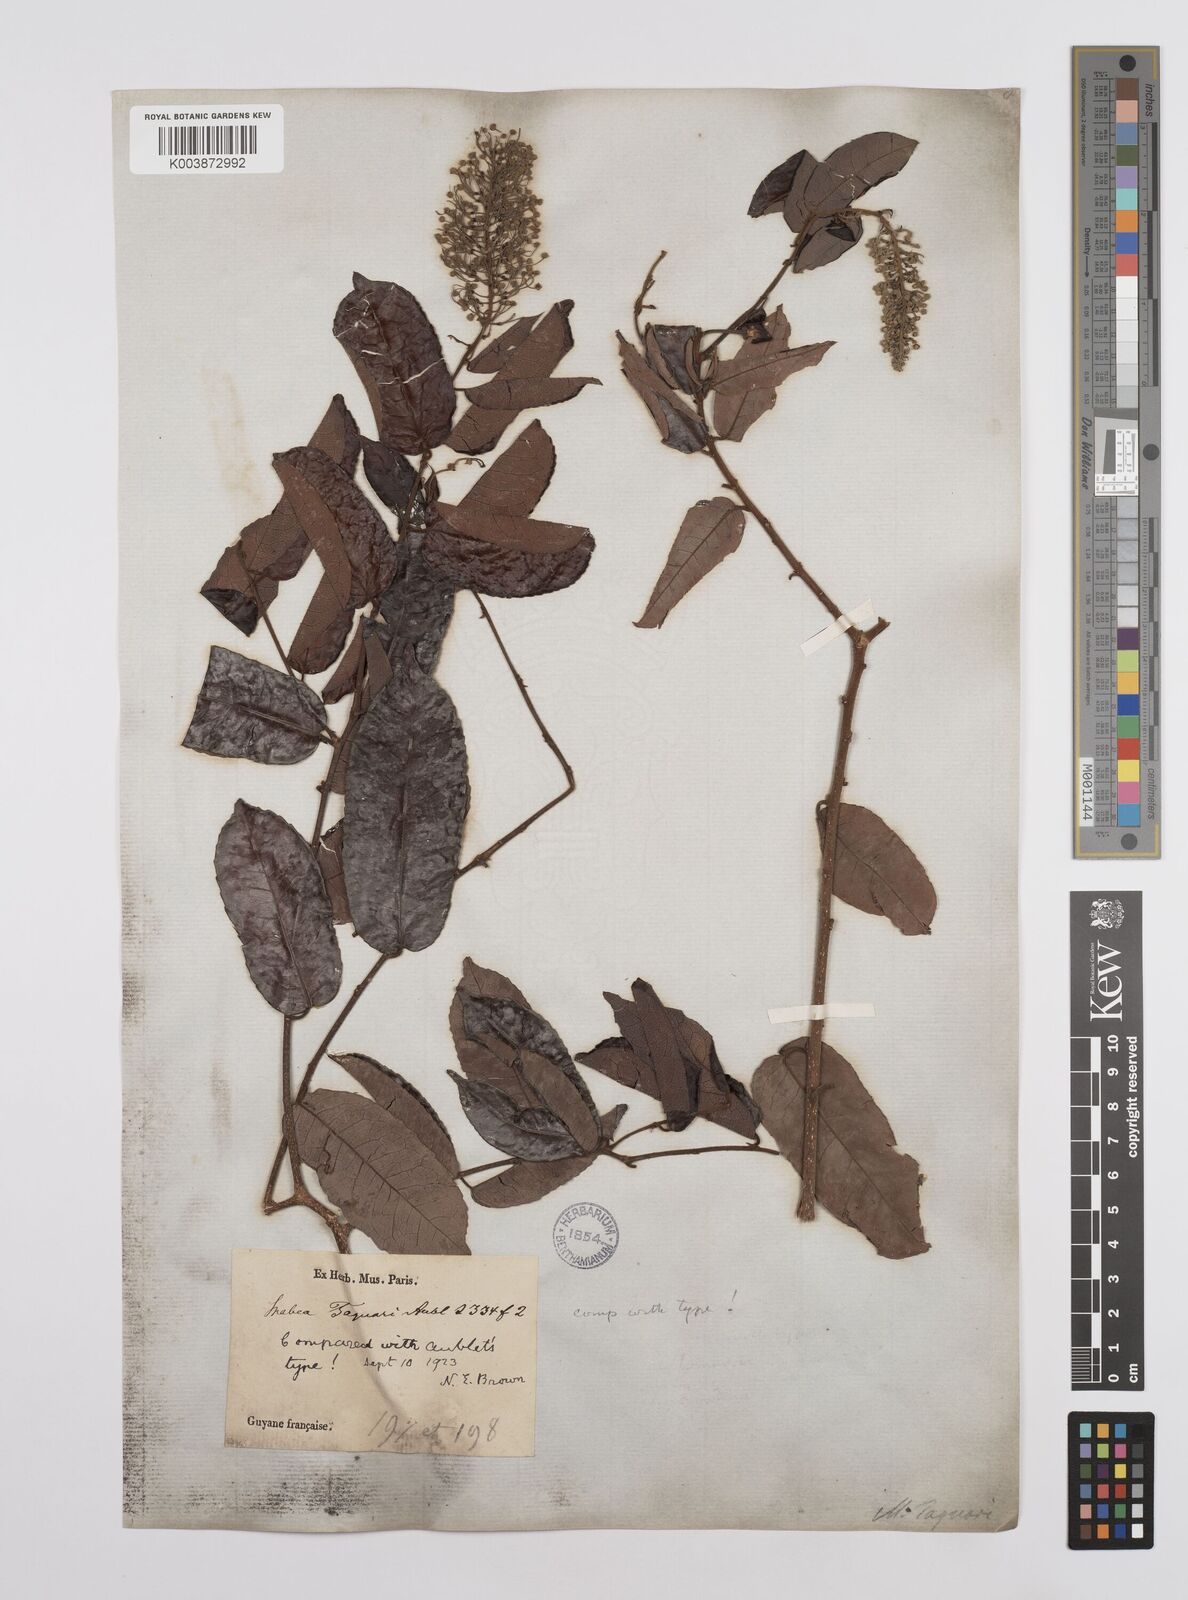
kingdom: Plantae
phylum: Tracheophyta
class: Magnoliopsida
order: Malpighiales
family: Euphorbiaceae
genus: Mabea
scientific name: Mabea taquari
